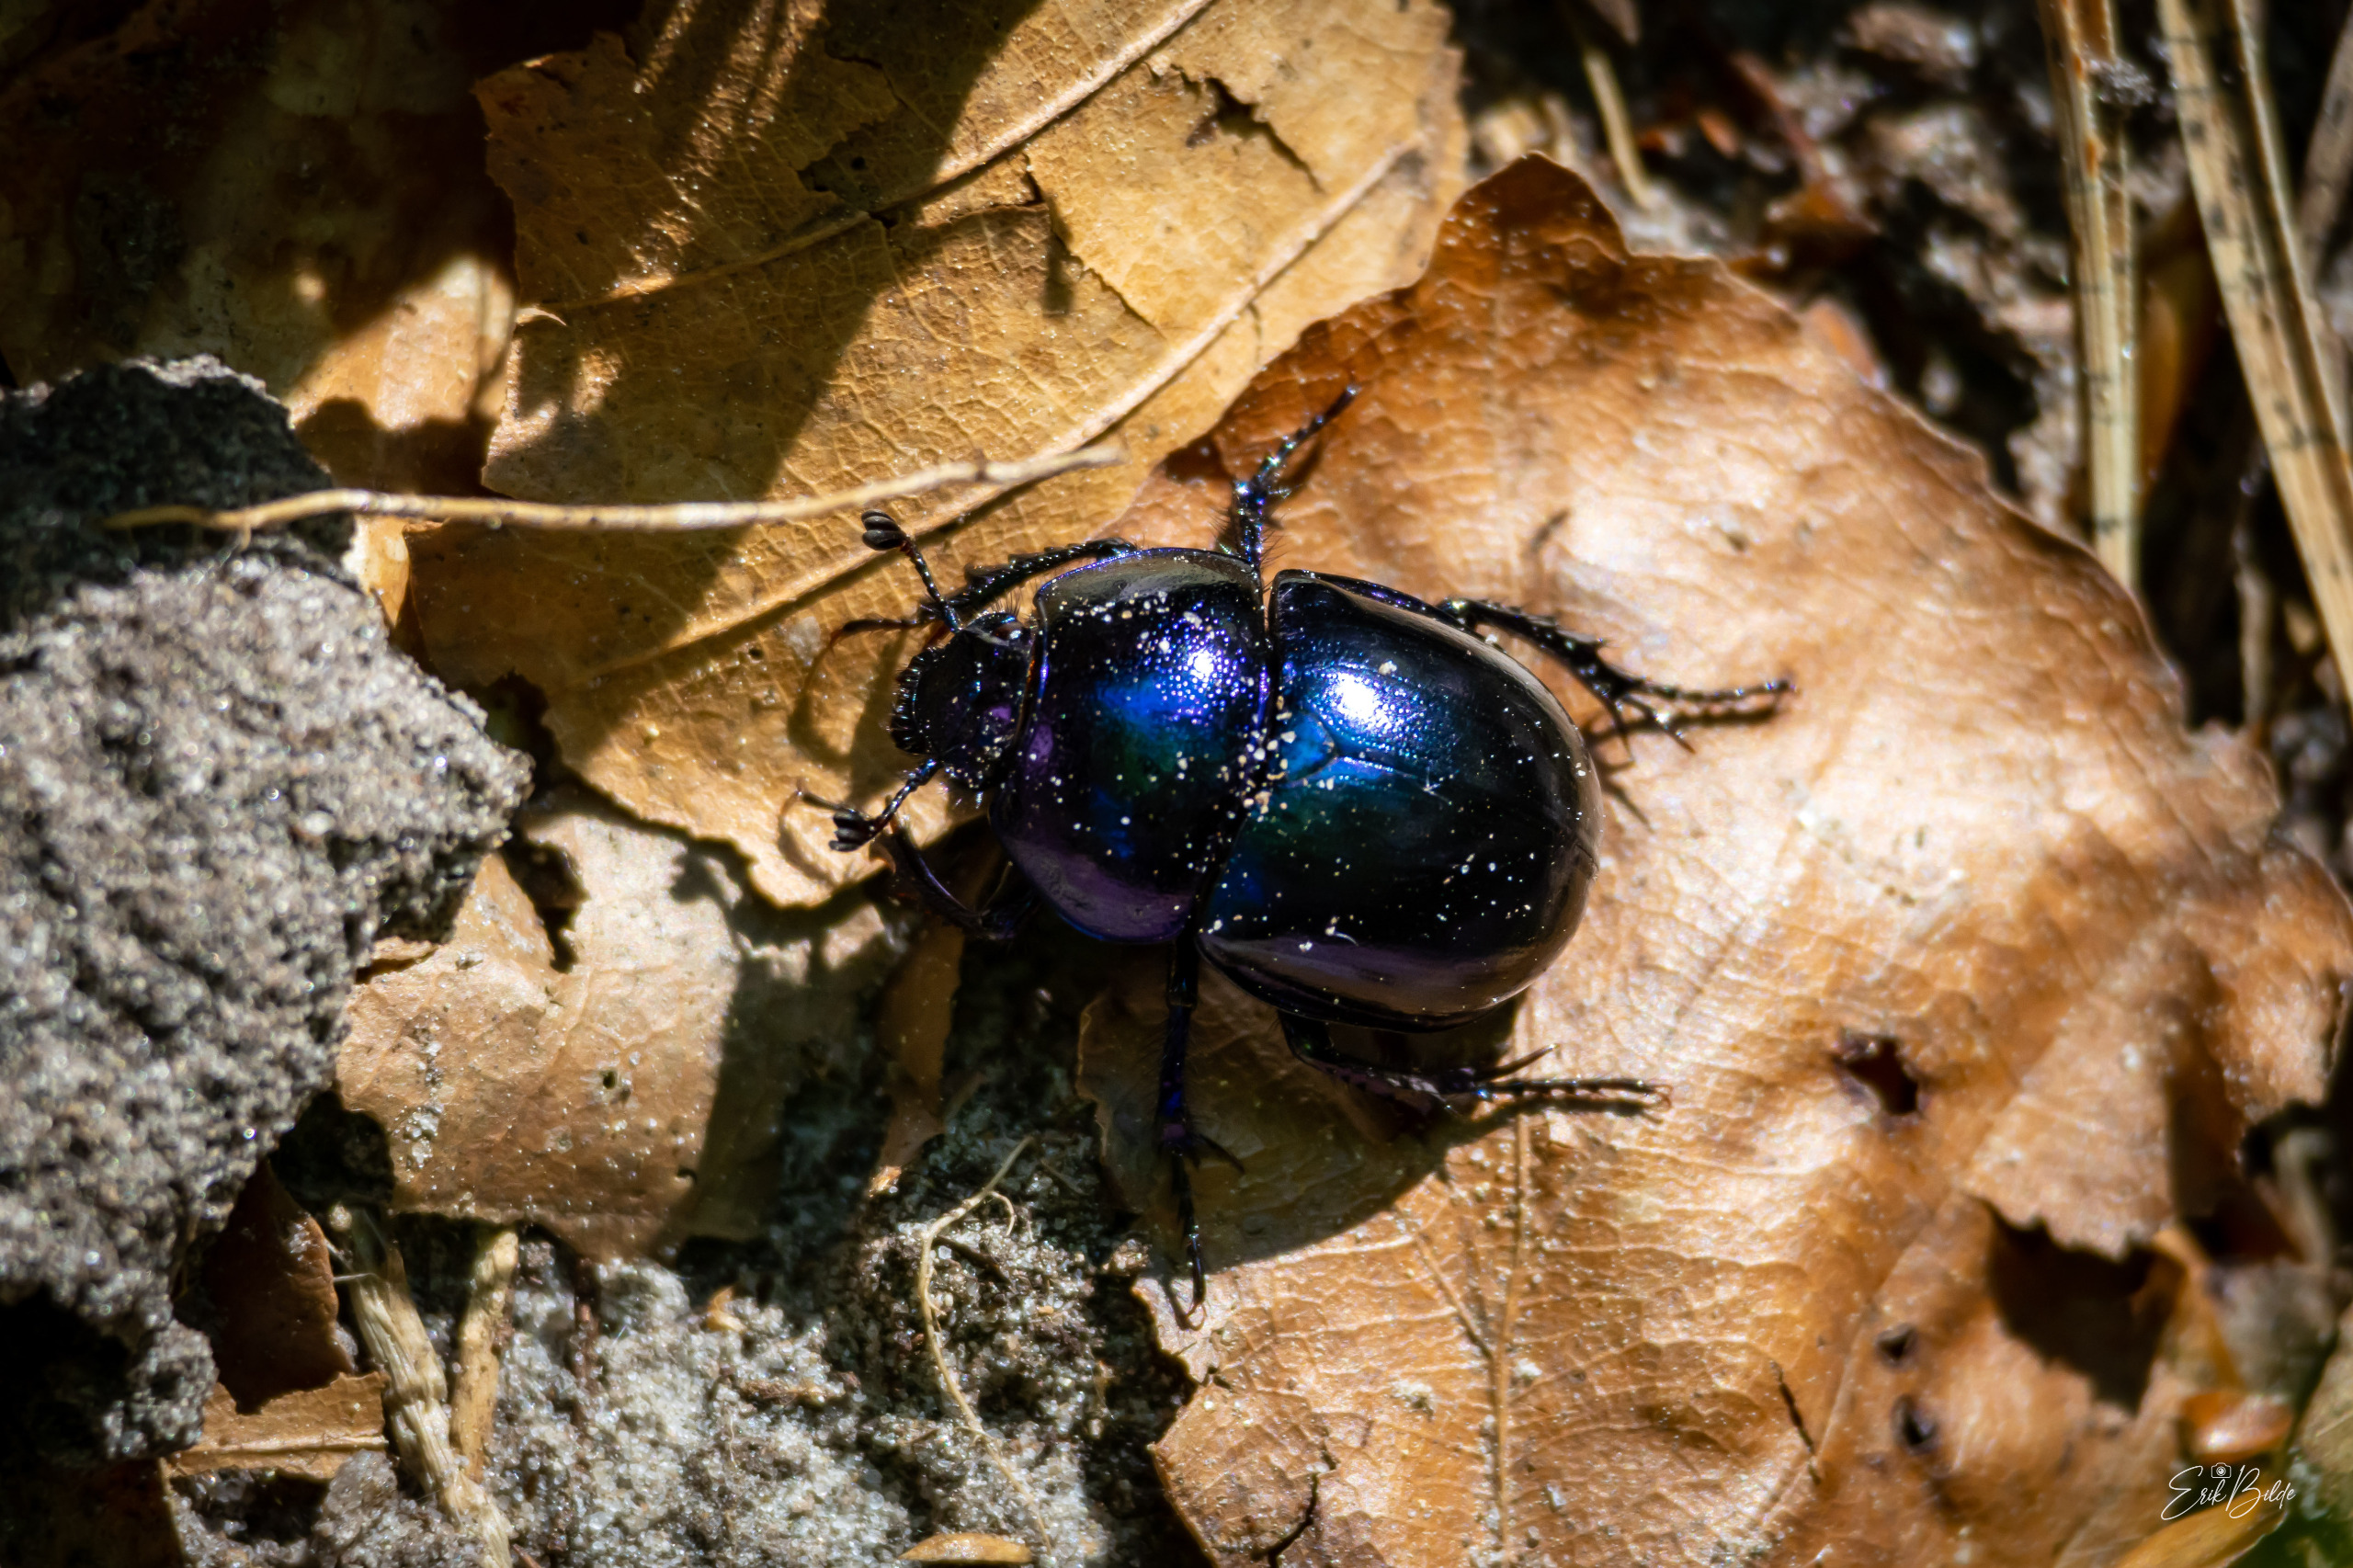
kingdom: Animalia
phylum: Arthropoda
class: Insecta
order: Coleoptera
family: Geotrupidae
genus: Trypocopris
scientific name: Trypocopris vernalis
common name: Glat skarnbasse
